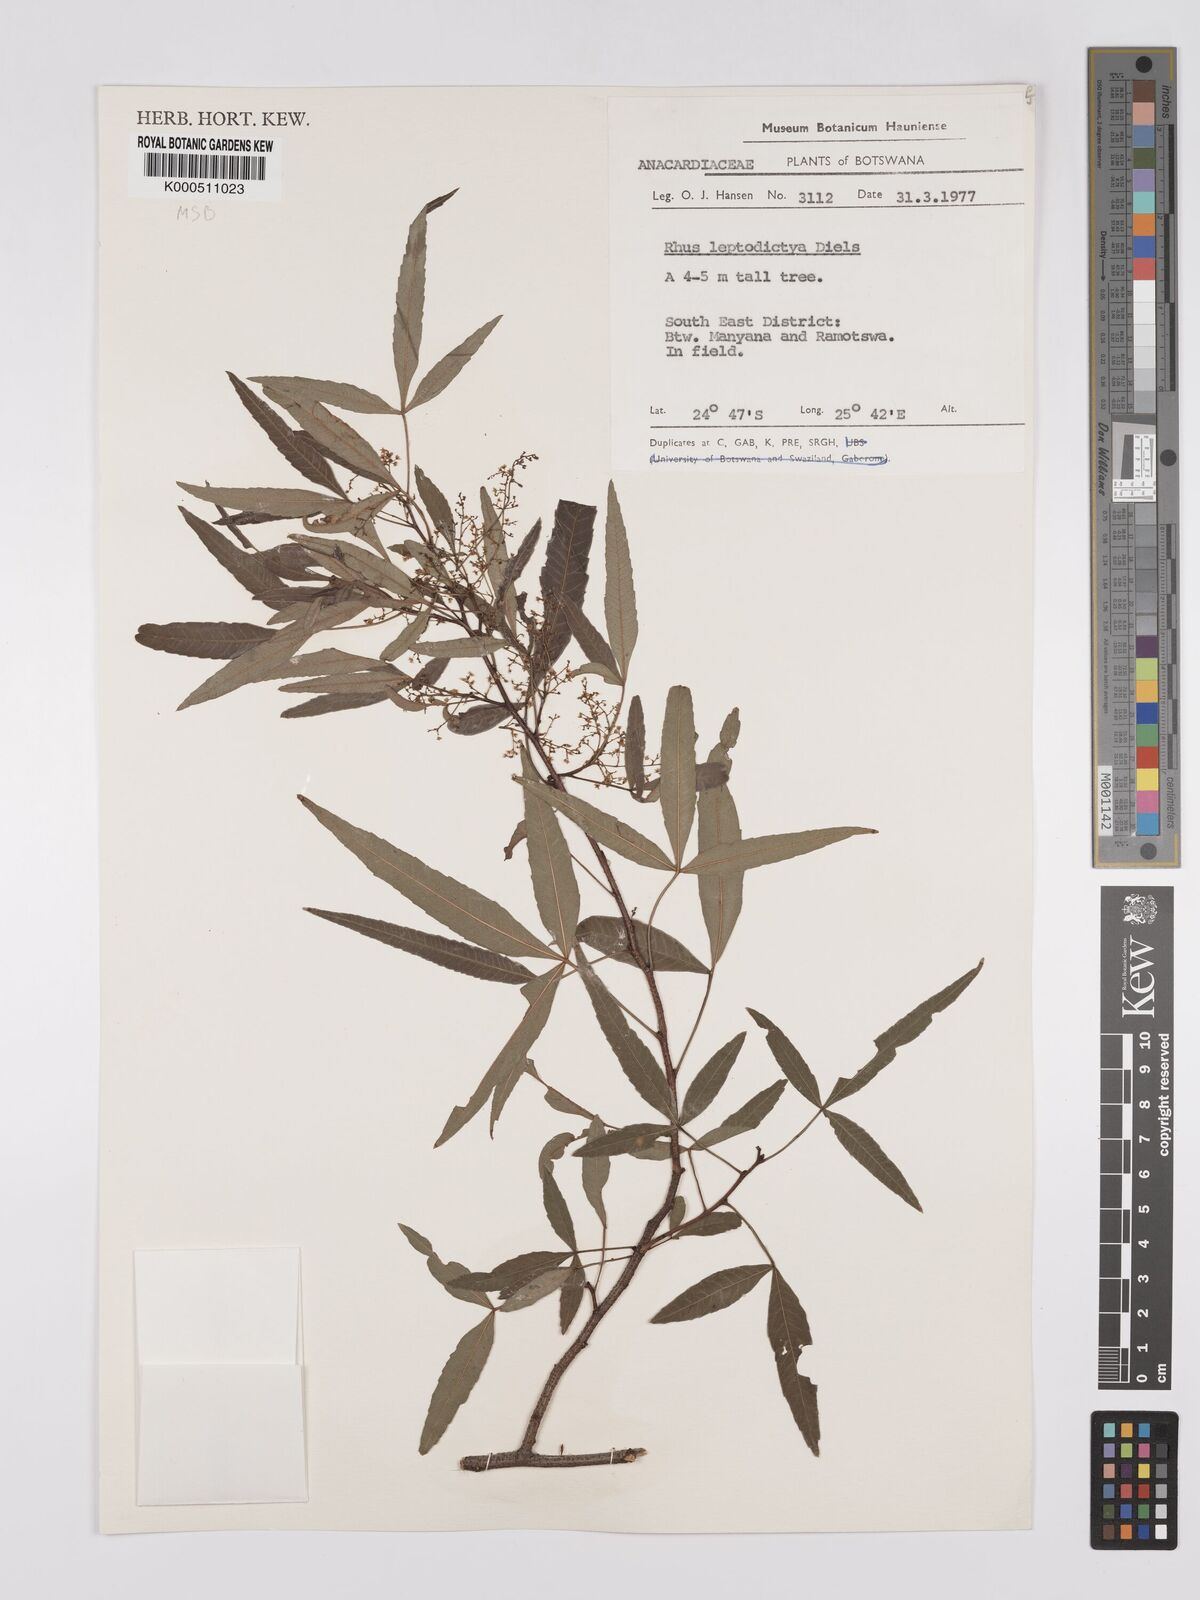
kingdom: Plantae
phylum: Tracheophyta
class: Magnoliopsida
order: Sapindales
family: Anacardiaceae
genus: Searsia
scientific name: Searsia leptodictya
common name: Mountain karee
